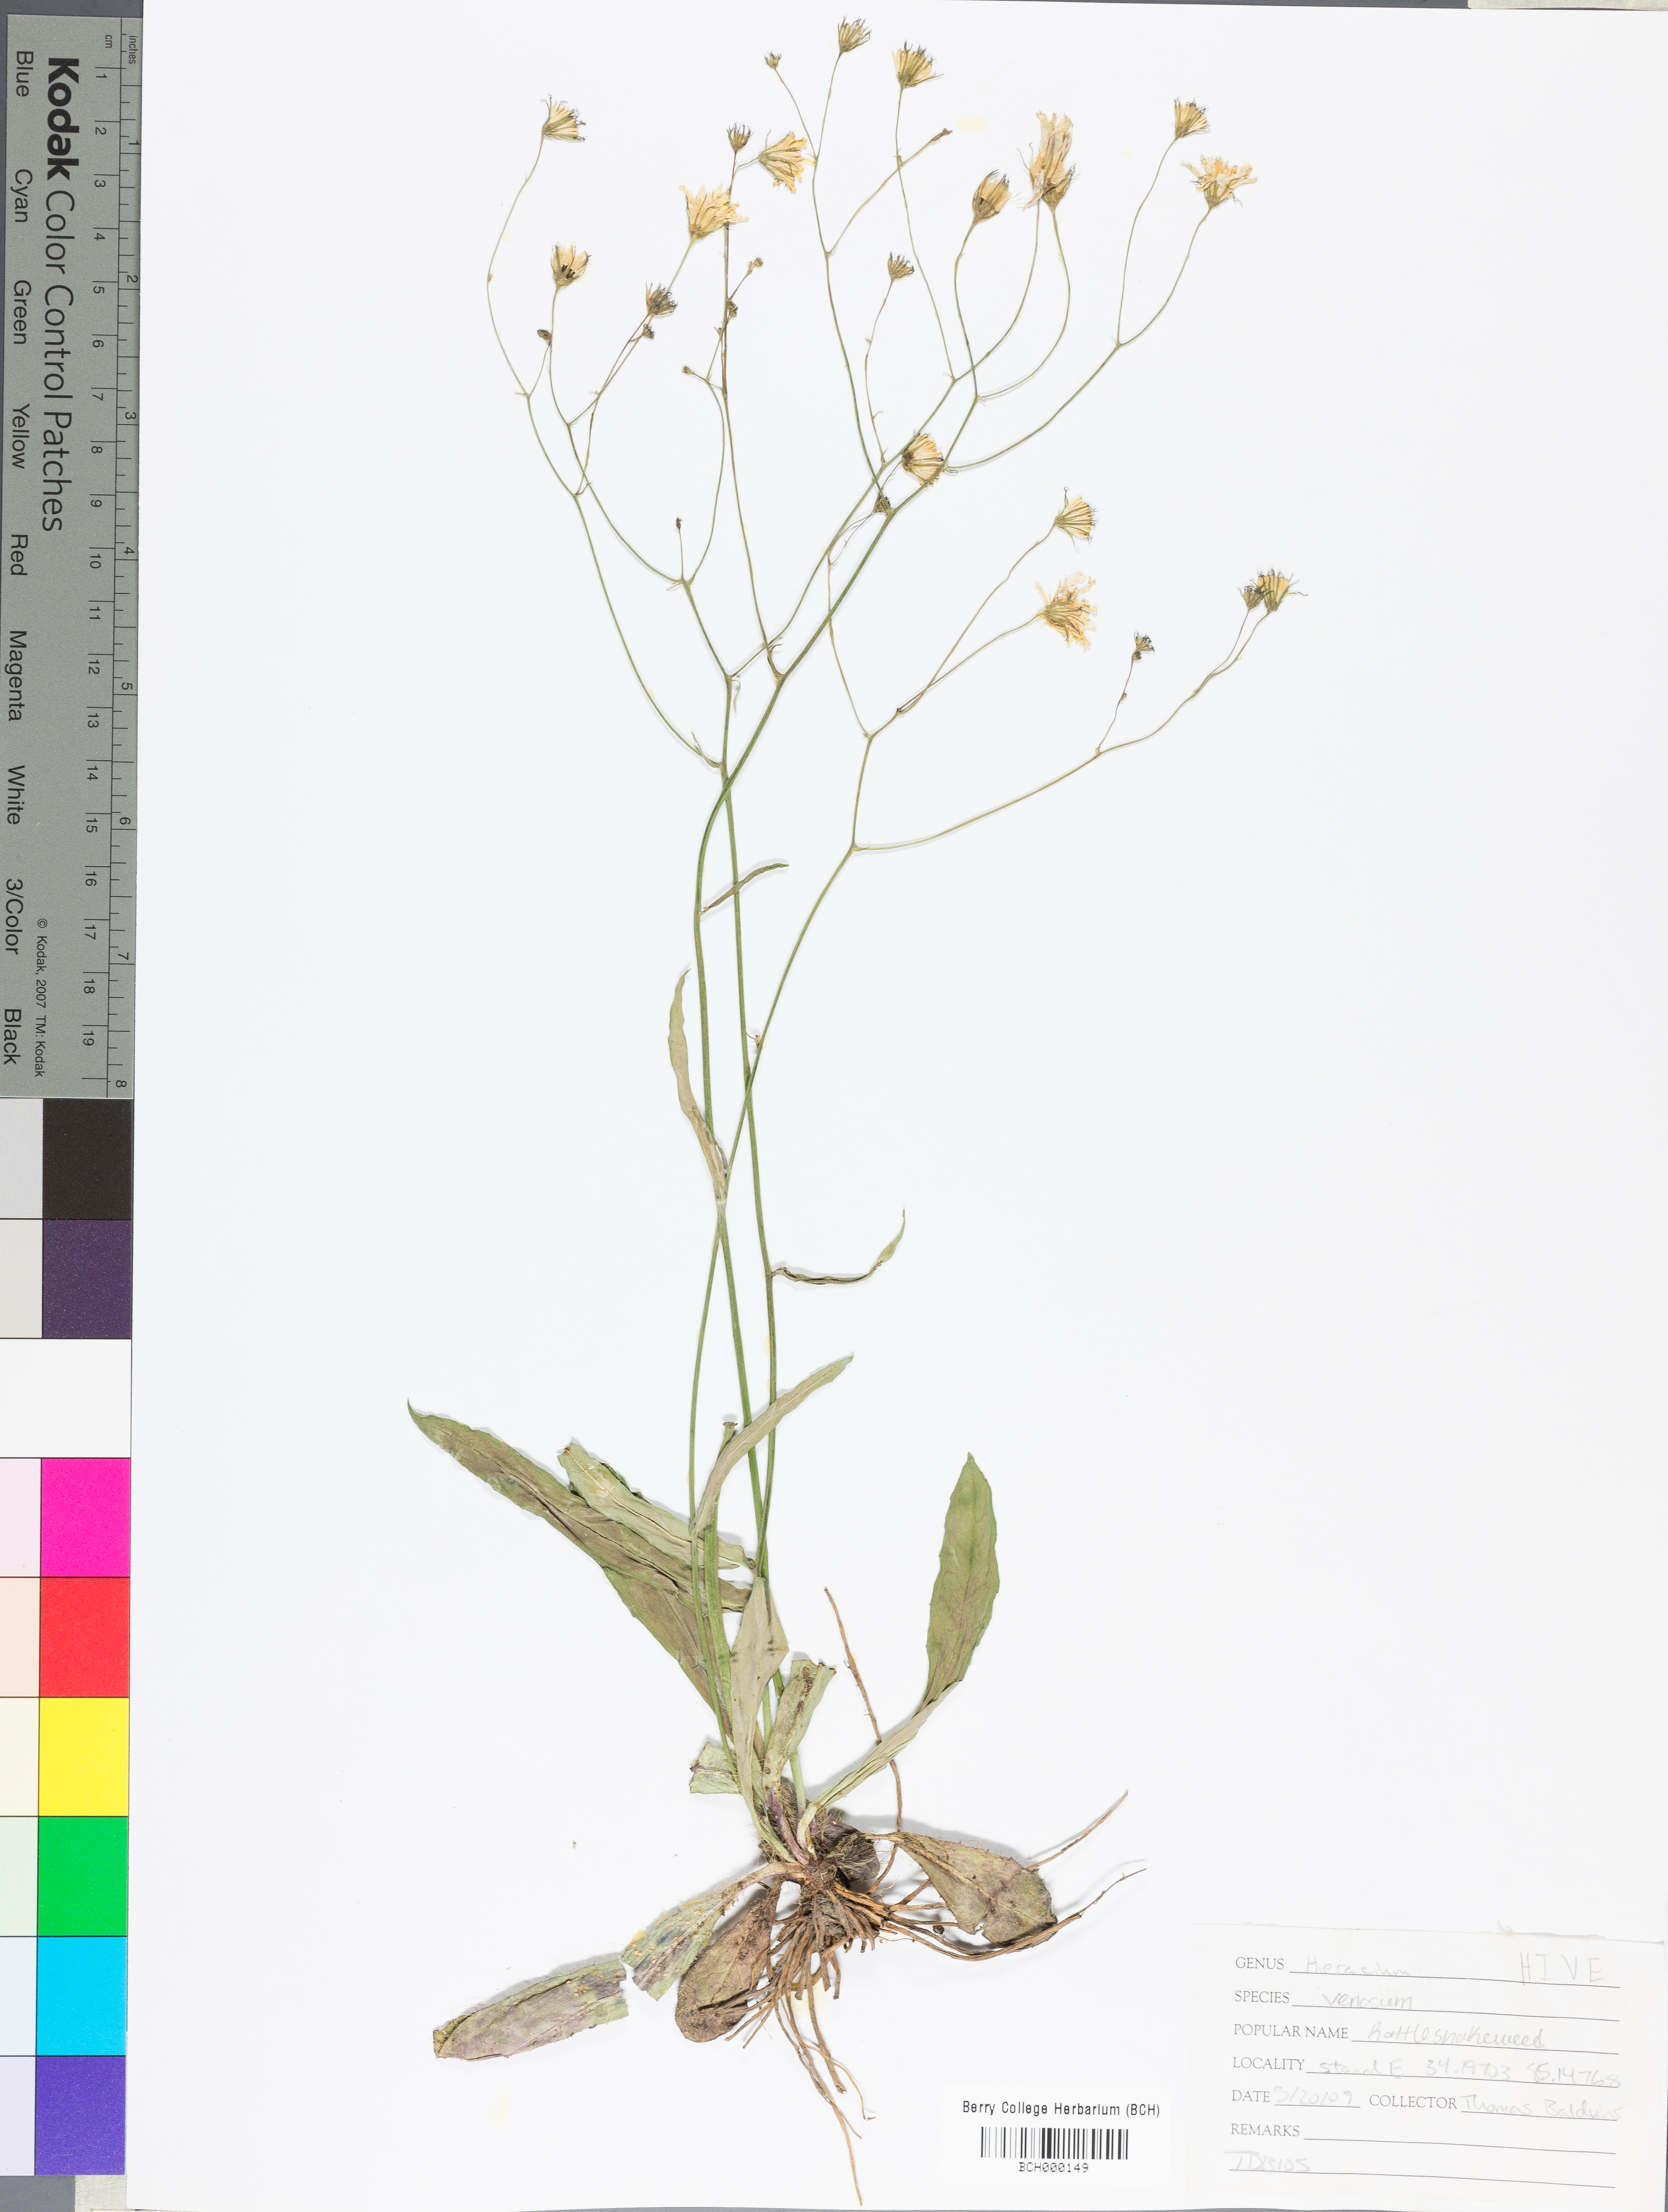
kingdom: Plantae
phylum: Tracheophyta
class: Magnoliopsida
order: Asterales
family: Asteraceae
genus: Hieracium
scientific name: Hieracium venosum
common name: Rattlesnake hawkweed
